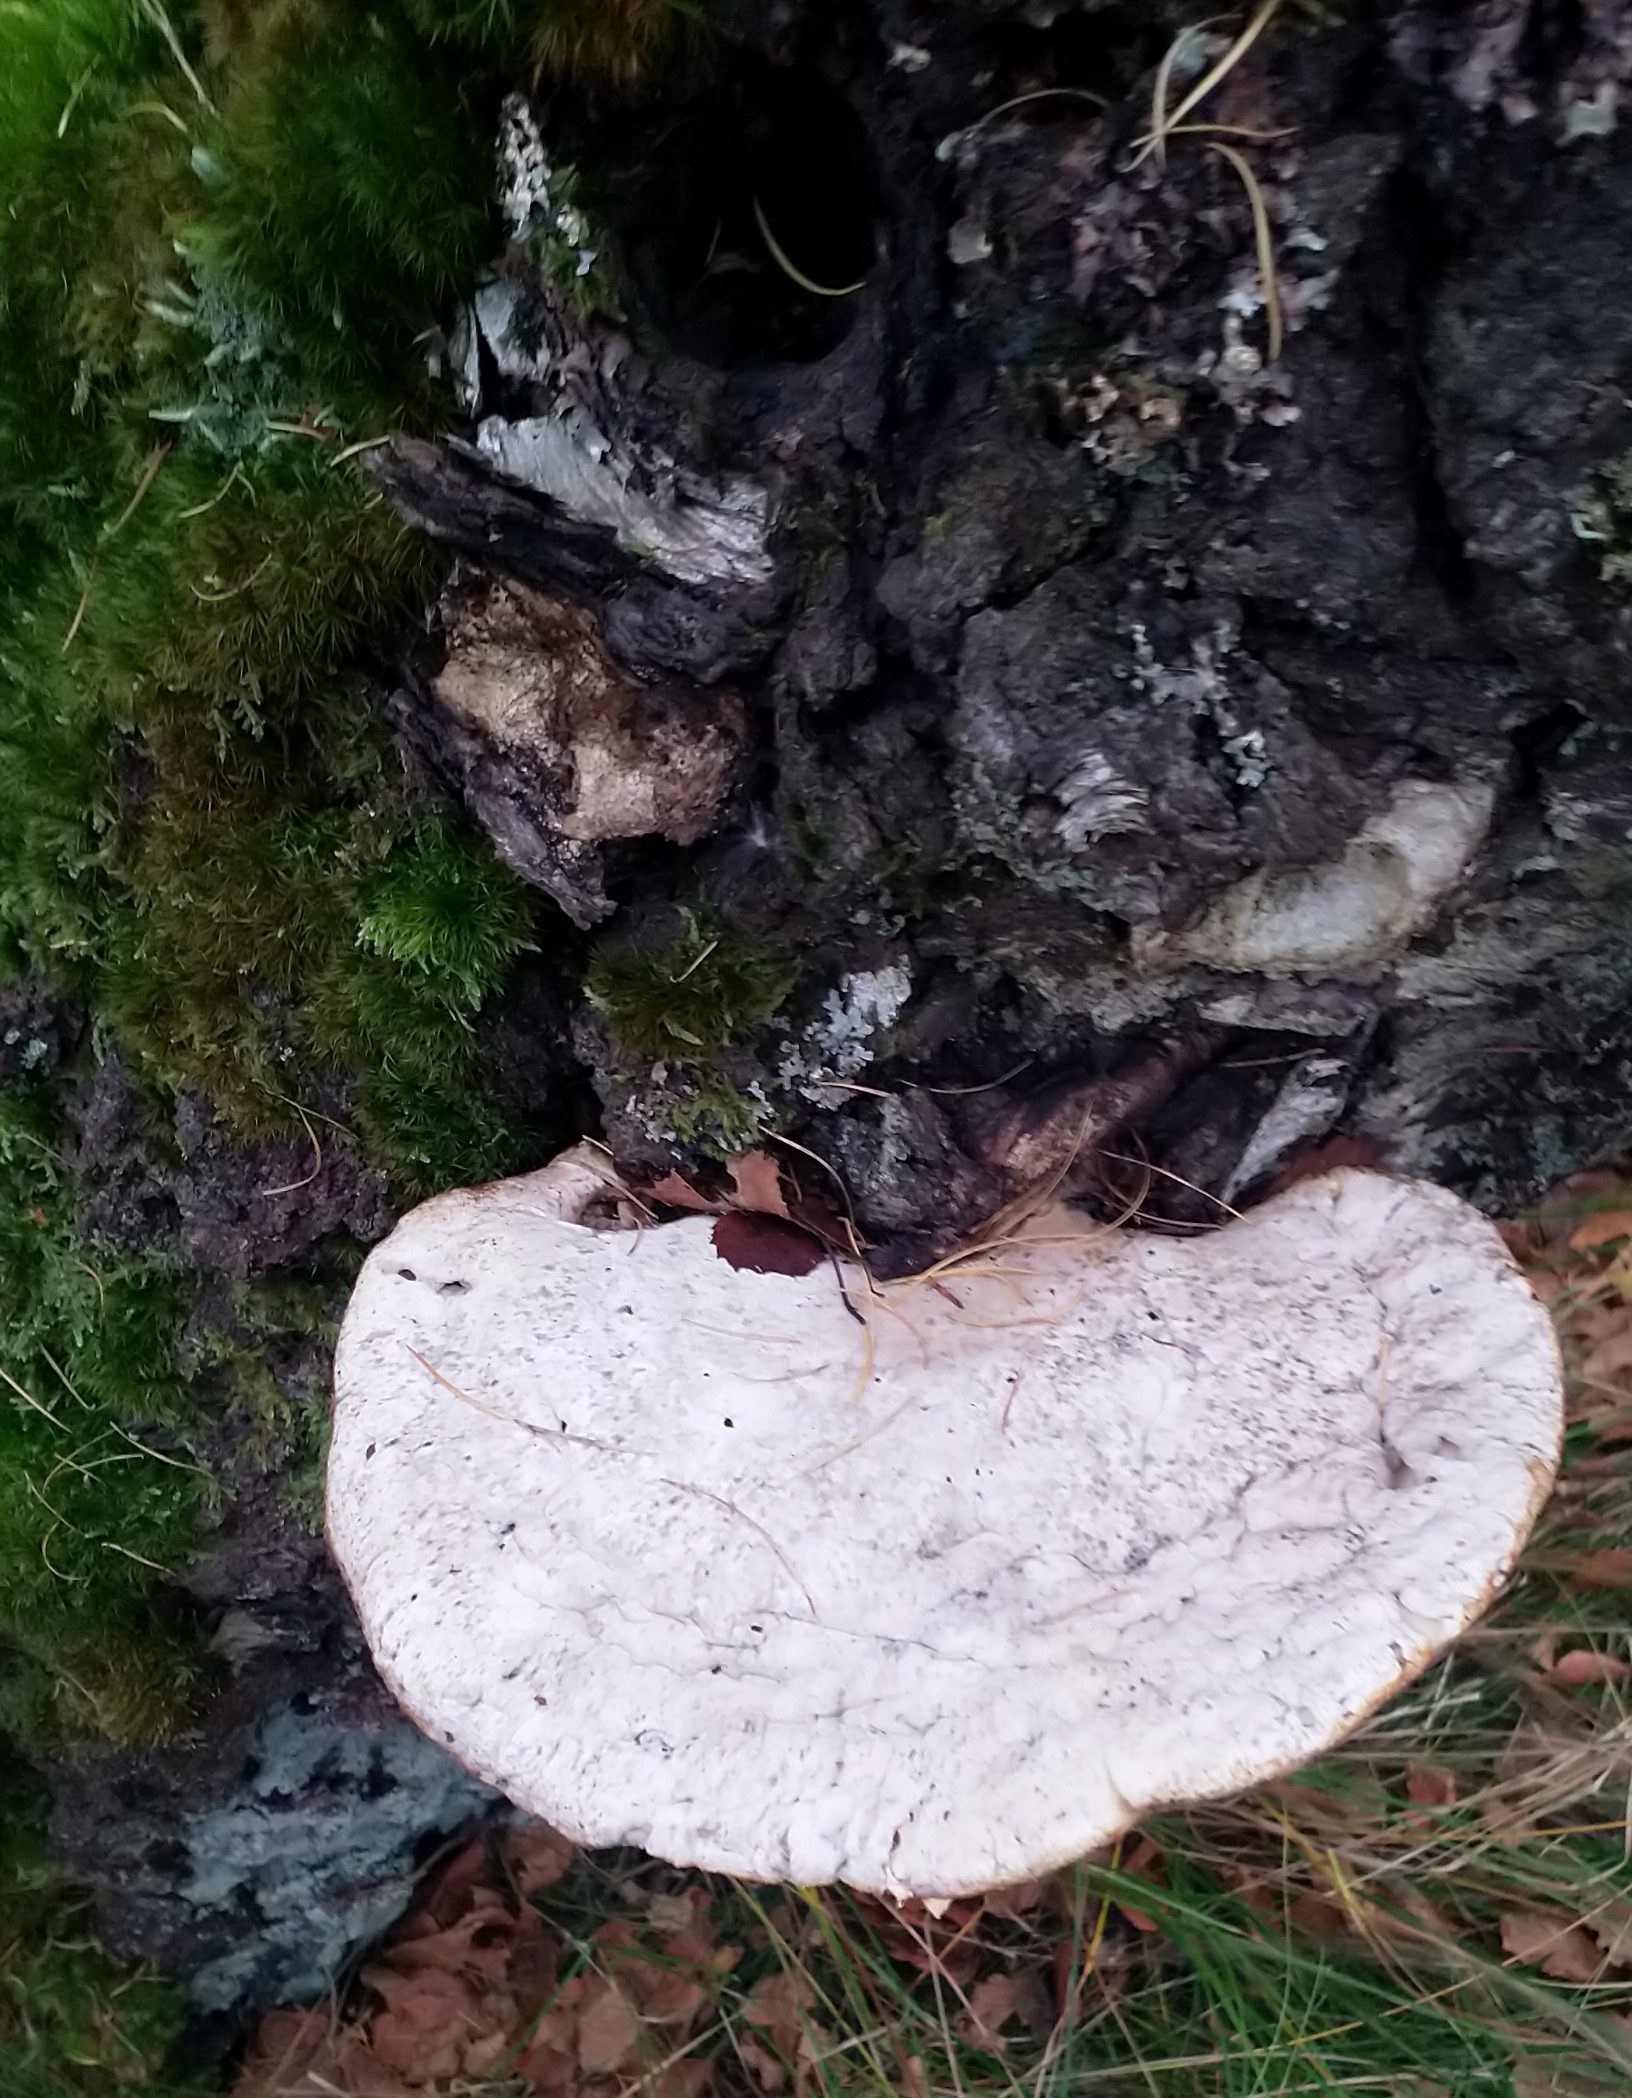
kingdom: Fungi
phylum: Basidiomycota
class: Agaricomycetes
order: Polyporales
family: Fomitopsidaceae
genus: Fomitopsis
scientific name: Fomitopsis betulina
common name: Birkeporesvamp
